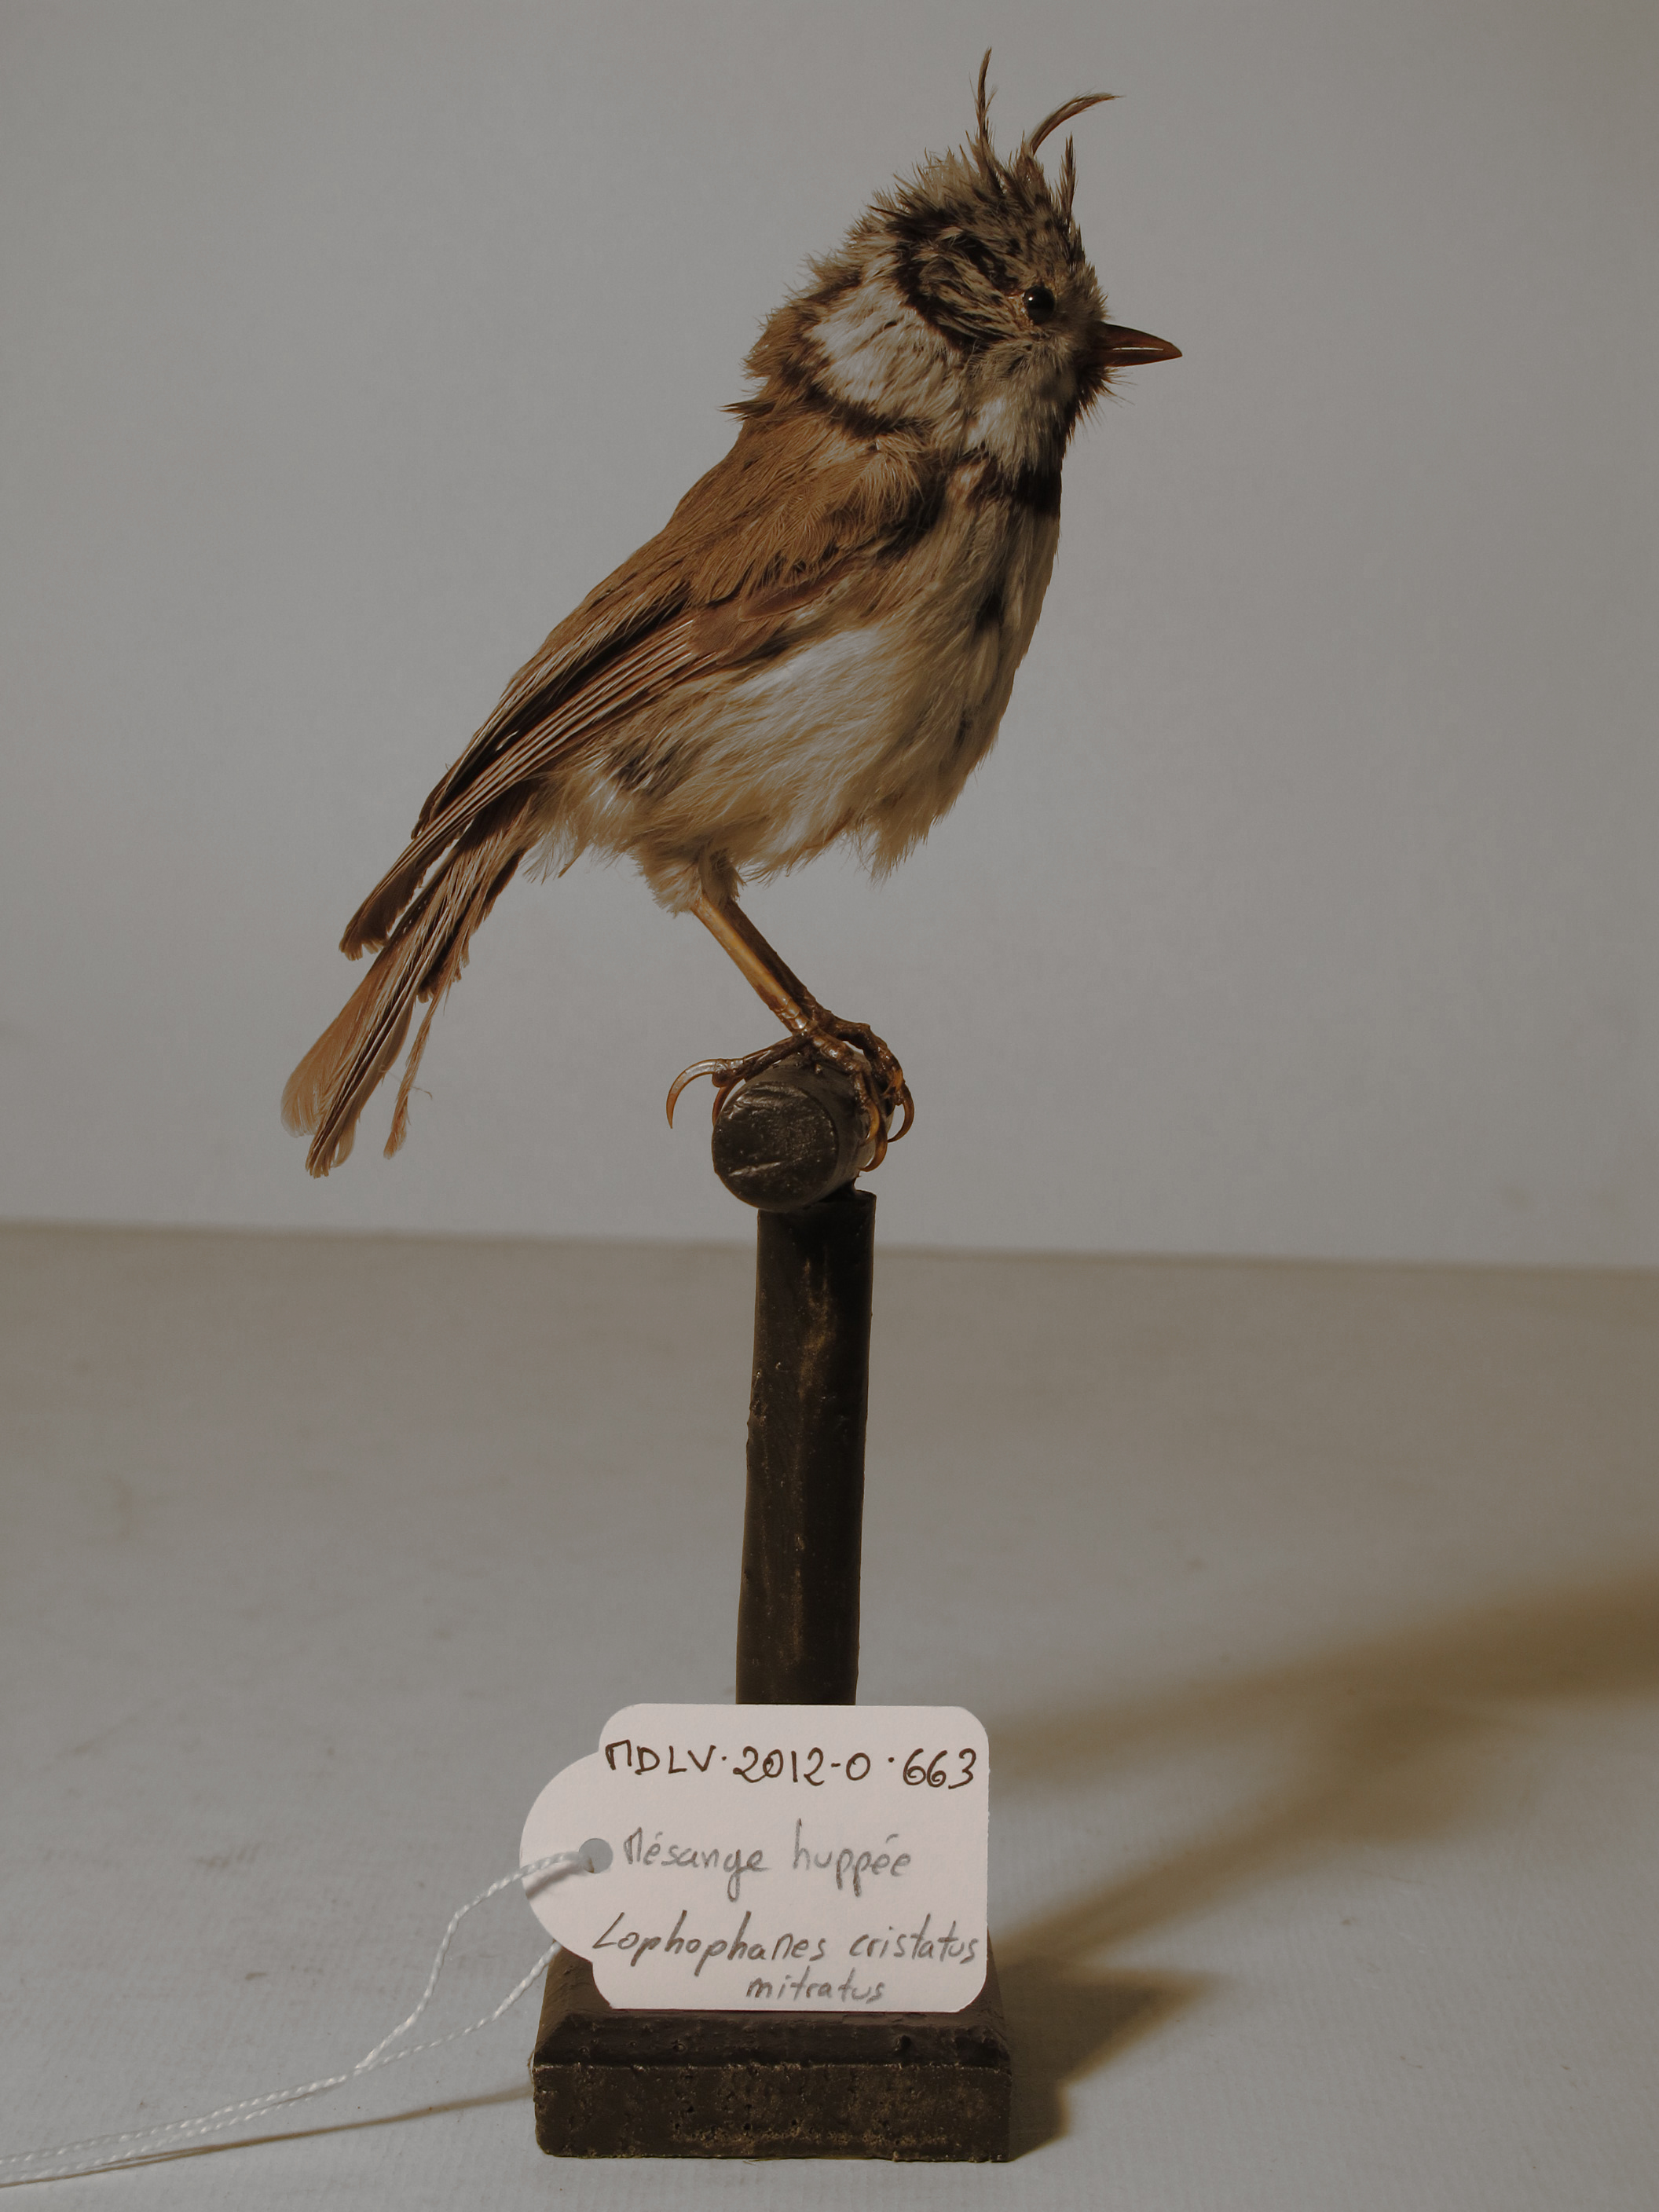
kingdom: Animalia
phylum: Chordata
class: Aves
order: Passeriformes
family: Paridae
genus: Lophophanes
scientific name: Lophophanes cristatus
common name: Grey-crested Tit
